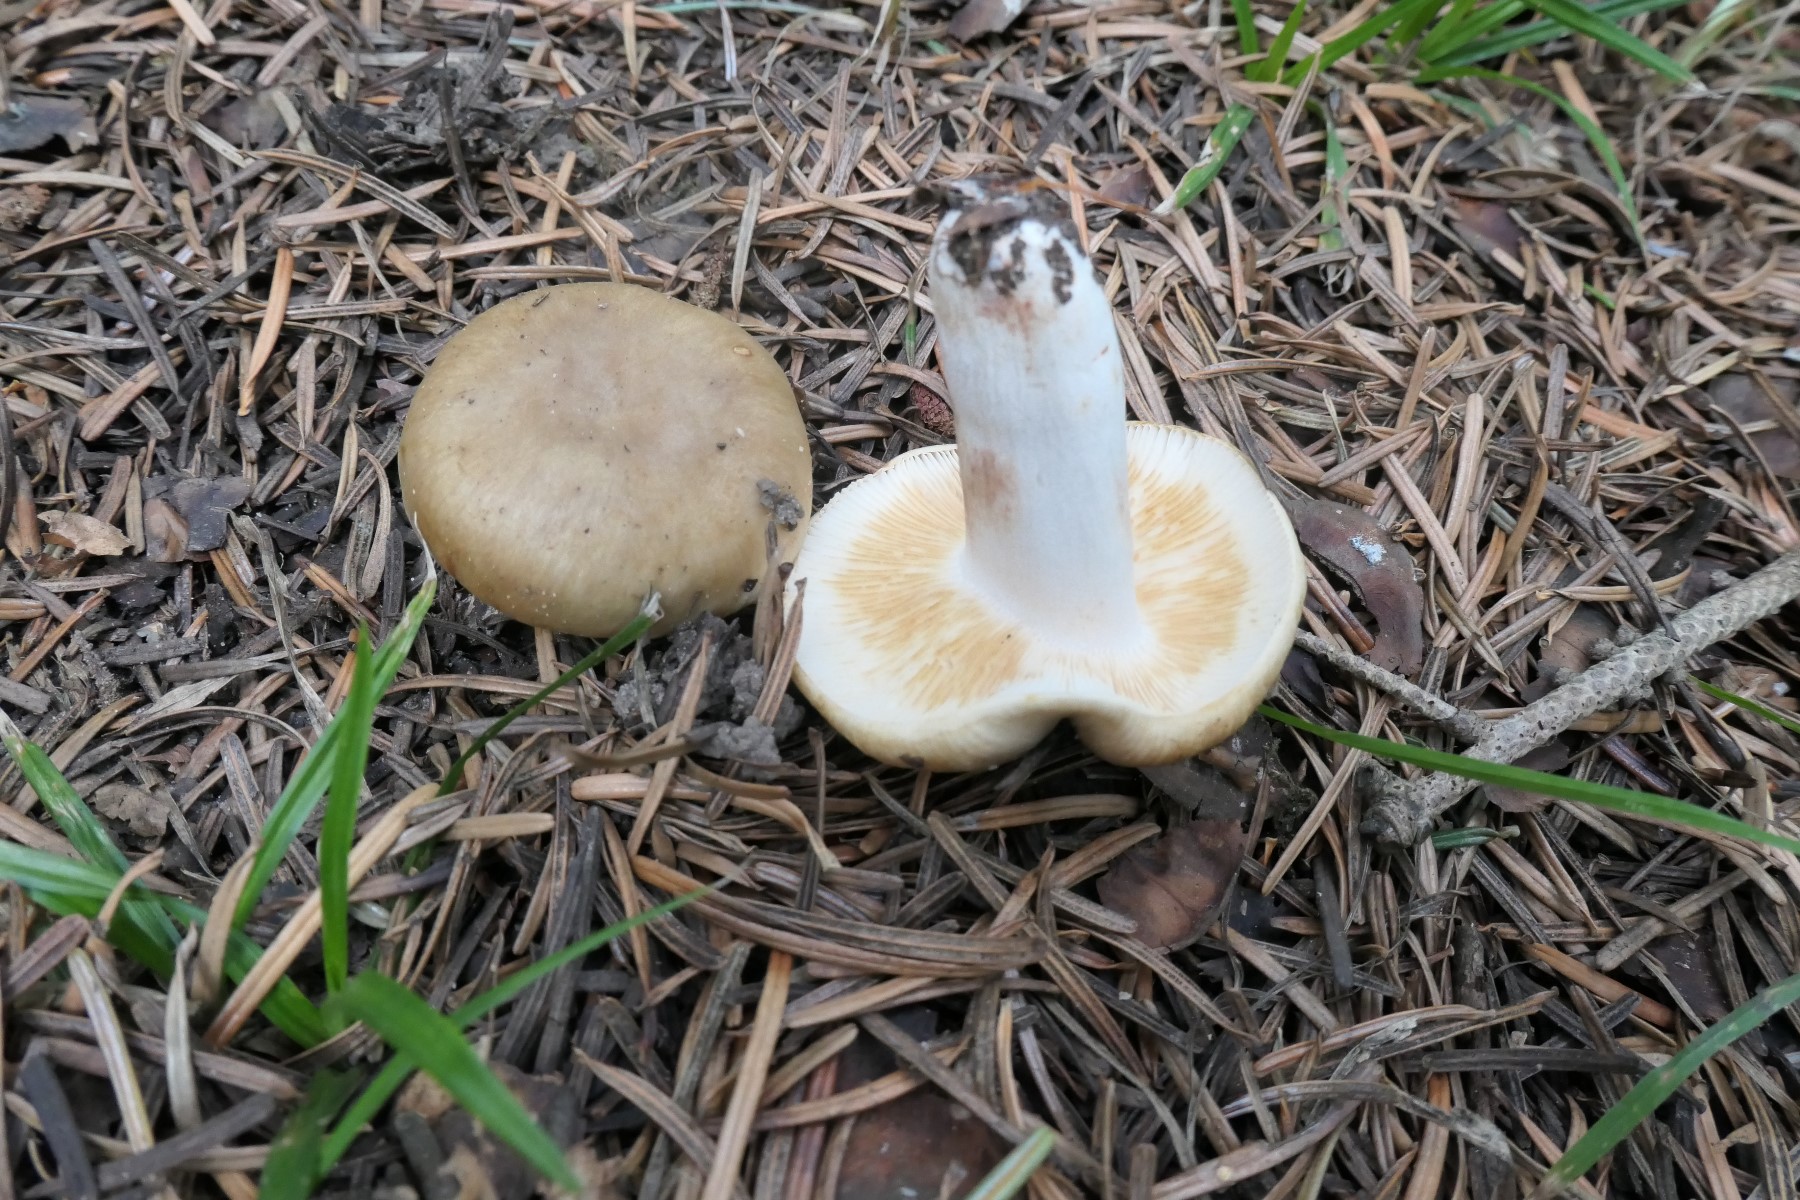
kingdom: Fungi
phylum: Basidiomycota
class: Agaricomycetes
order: Russulales
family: Russulaceae
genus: Russula
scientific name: Russula recondita
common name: mild kam-skørhat
